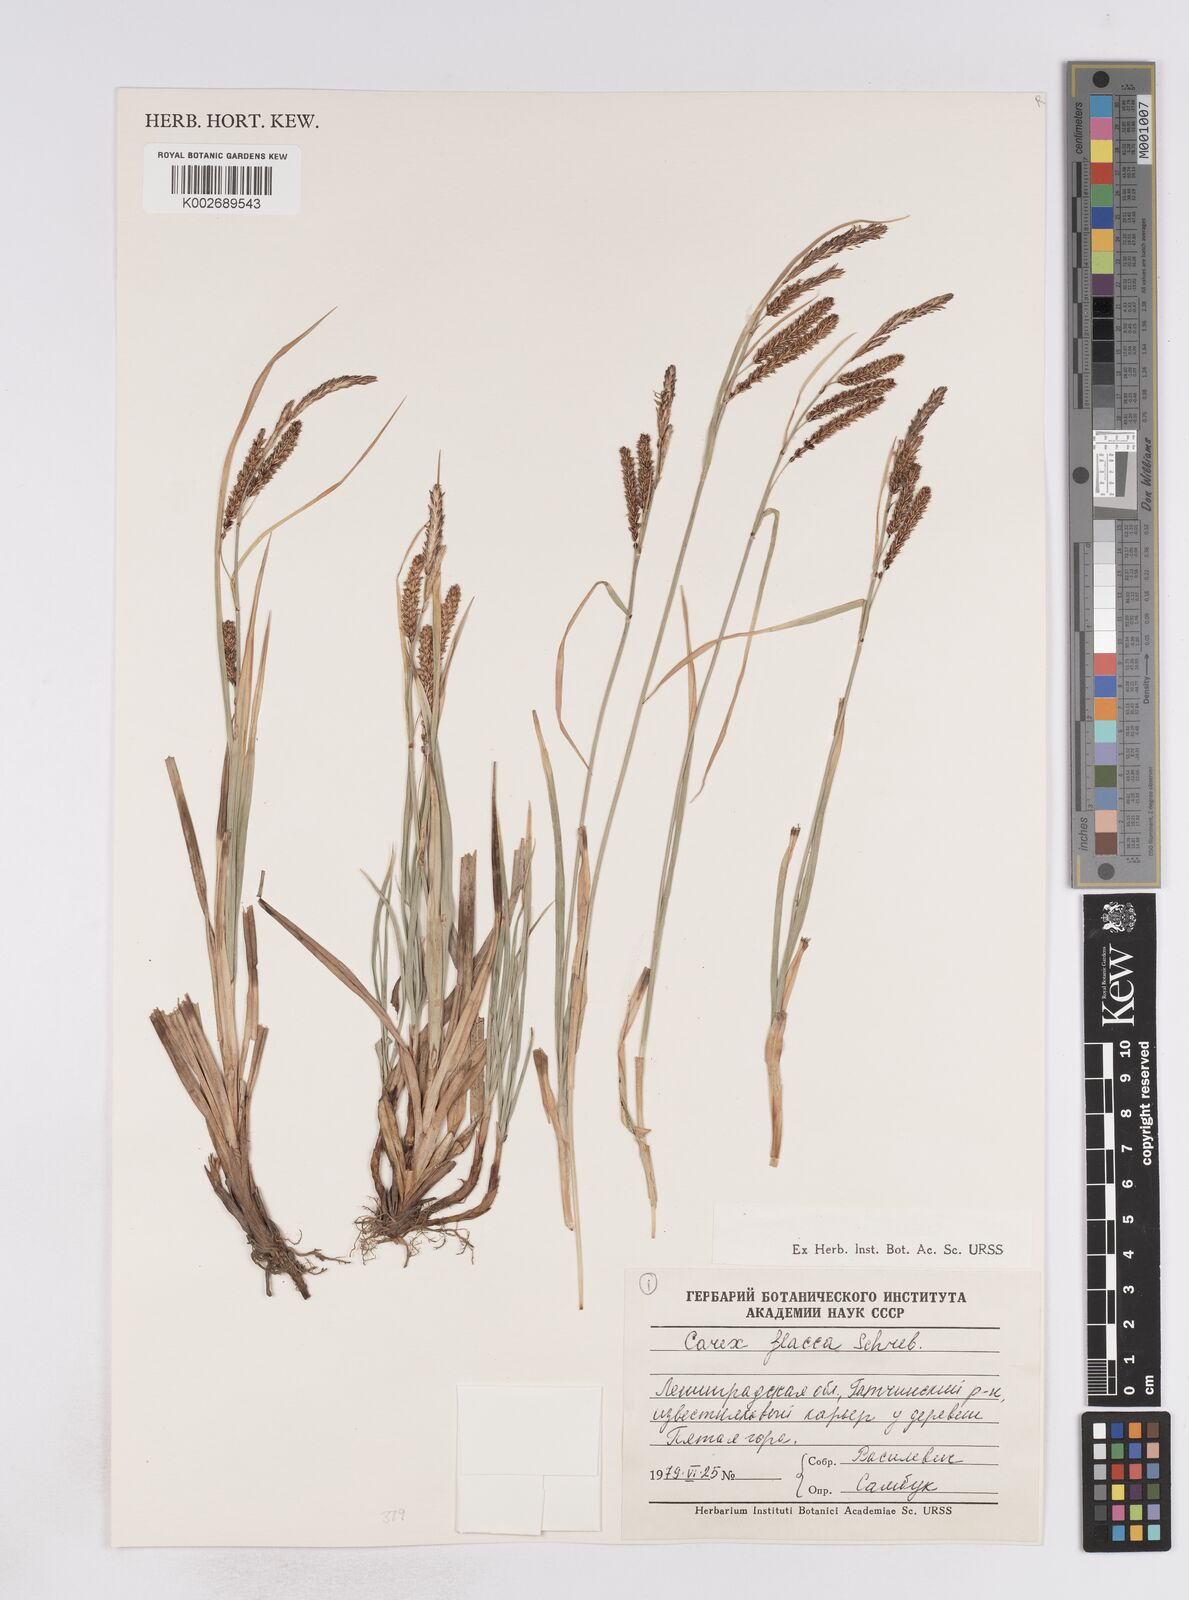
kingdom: Plantae
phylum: Tracheophyta
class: Liliopsida
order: Poales
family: Cyperaceae
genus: Carex
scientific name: Carex flacca
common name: Glaucous sedge
